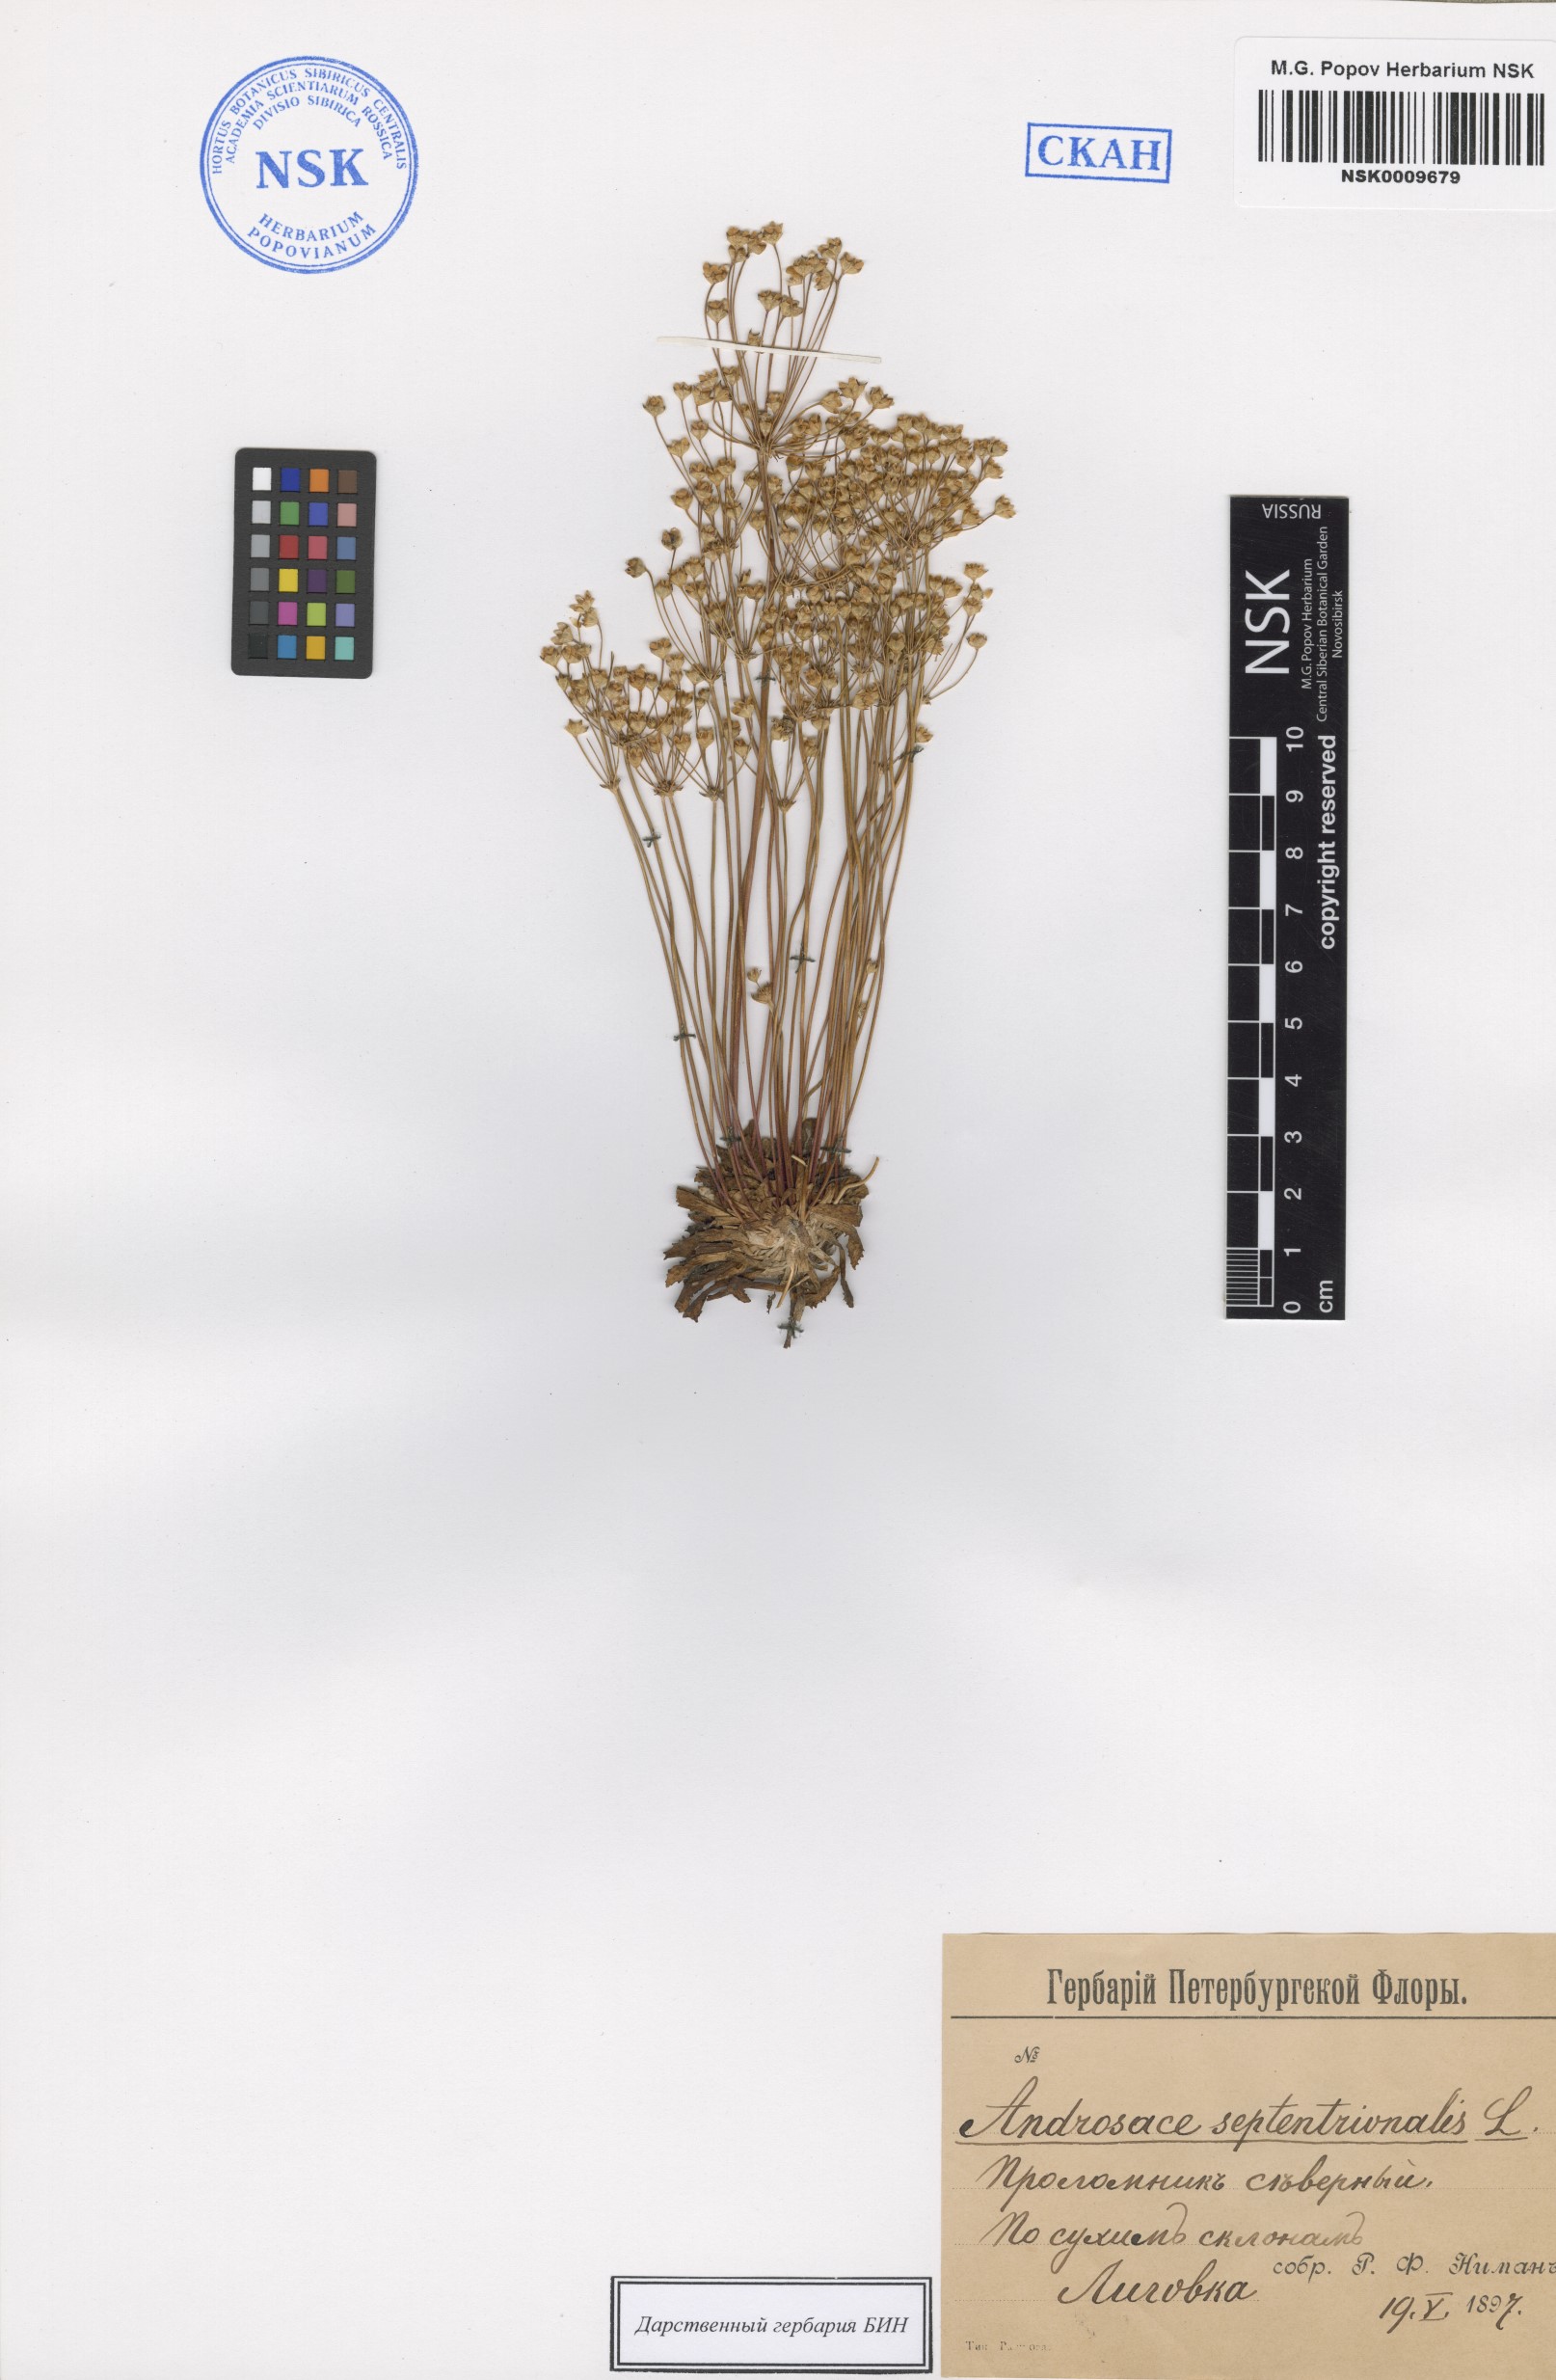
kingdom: Plantae
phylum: Tracheophyta
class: Magnoliopsida
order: Ericales
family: Primulaceae
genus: Androsace
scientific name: Androsace septentrionalis
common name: Hairy northern fairy-candelabra
